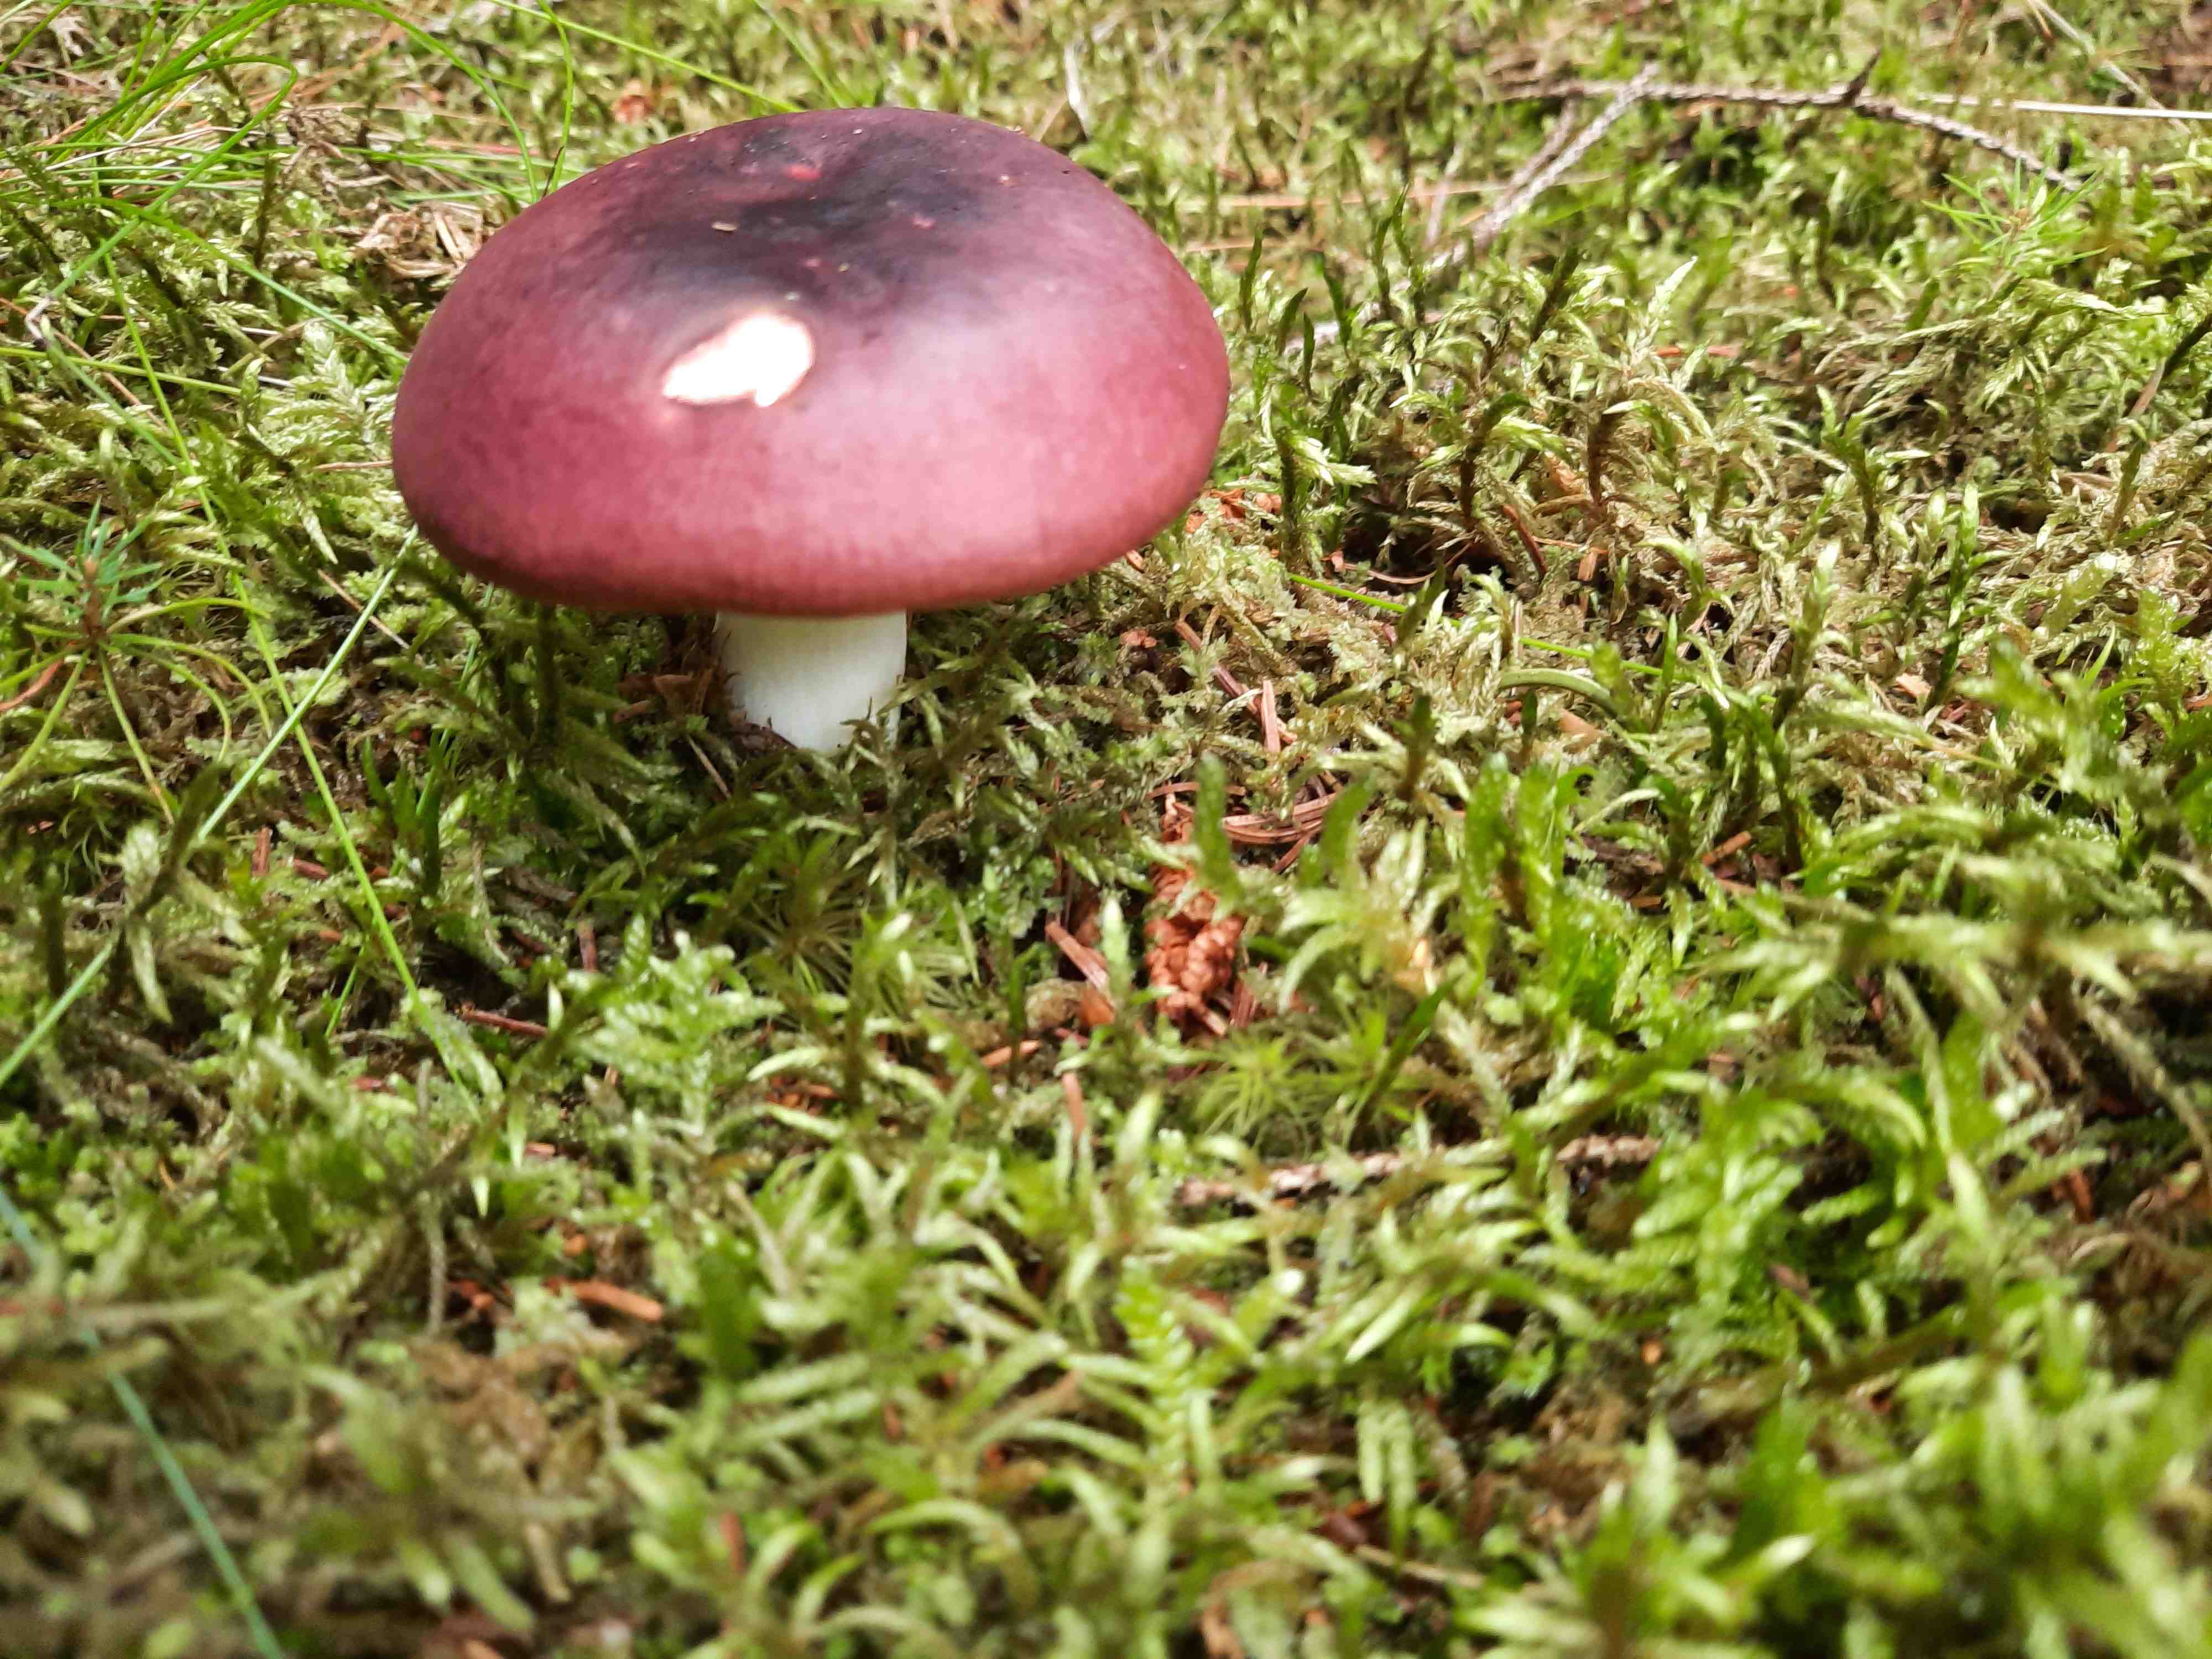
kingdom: Fungi
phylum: Basidiomycota
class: Agaricomycetes
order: Russulales
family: Russulaceae
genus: Russula
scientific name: Russula atrorubens
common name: sortrød skørhat
